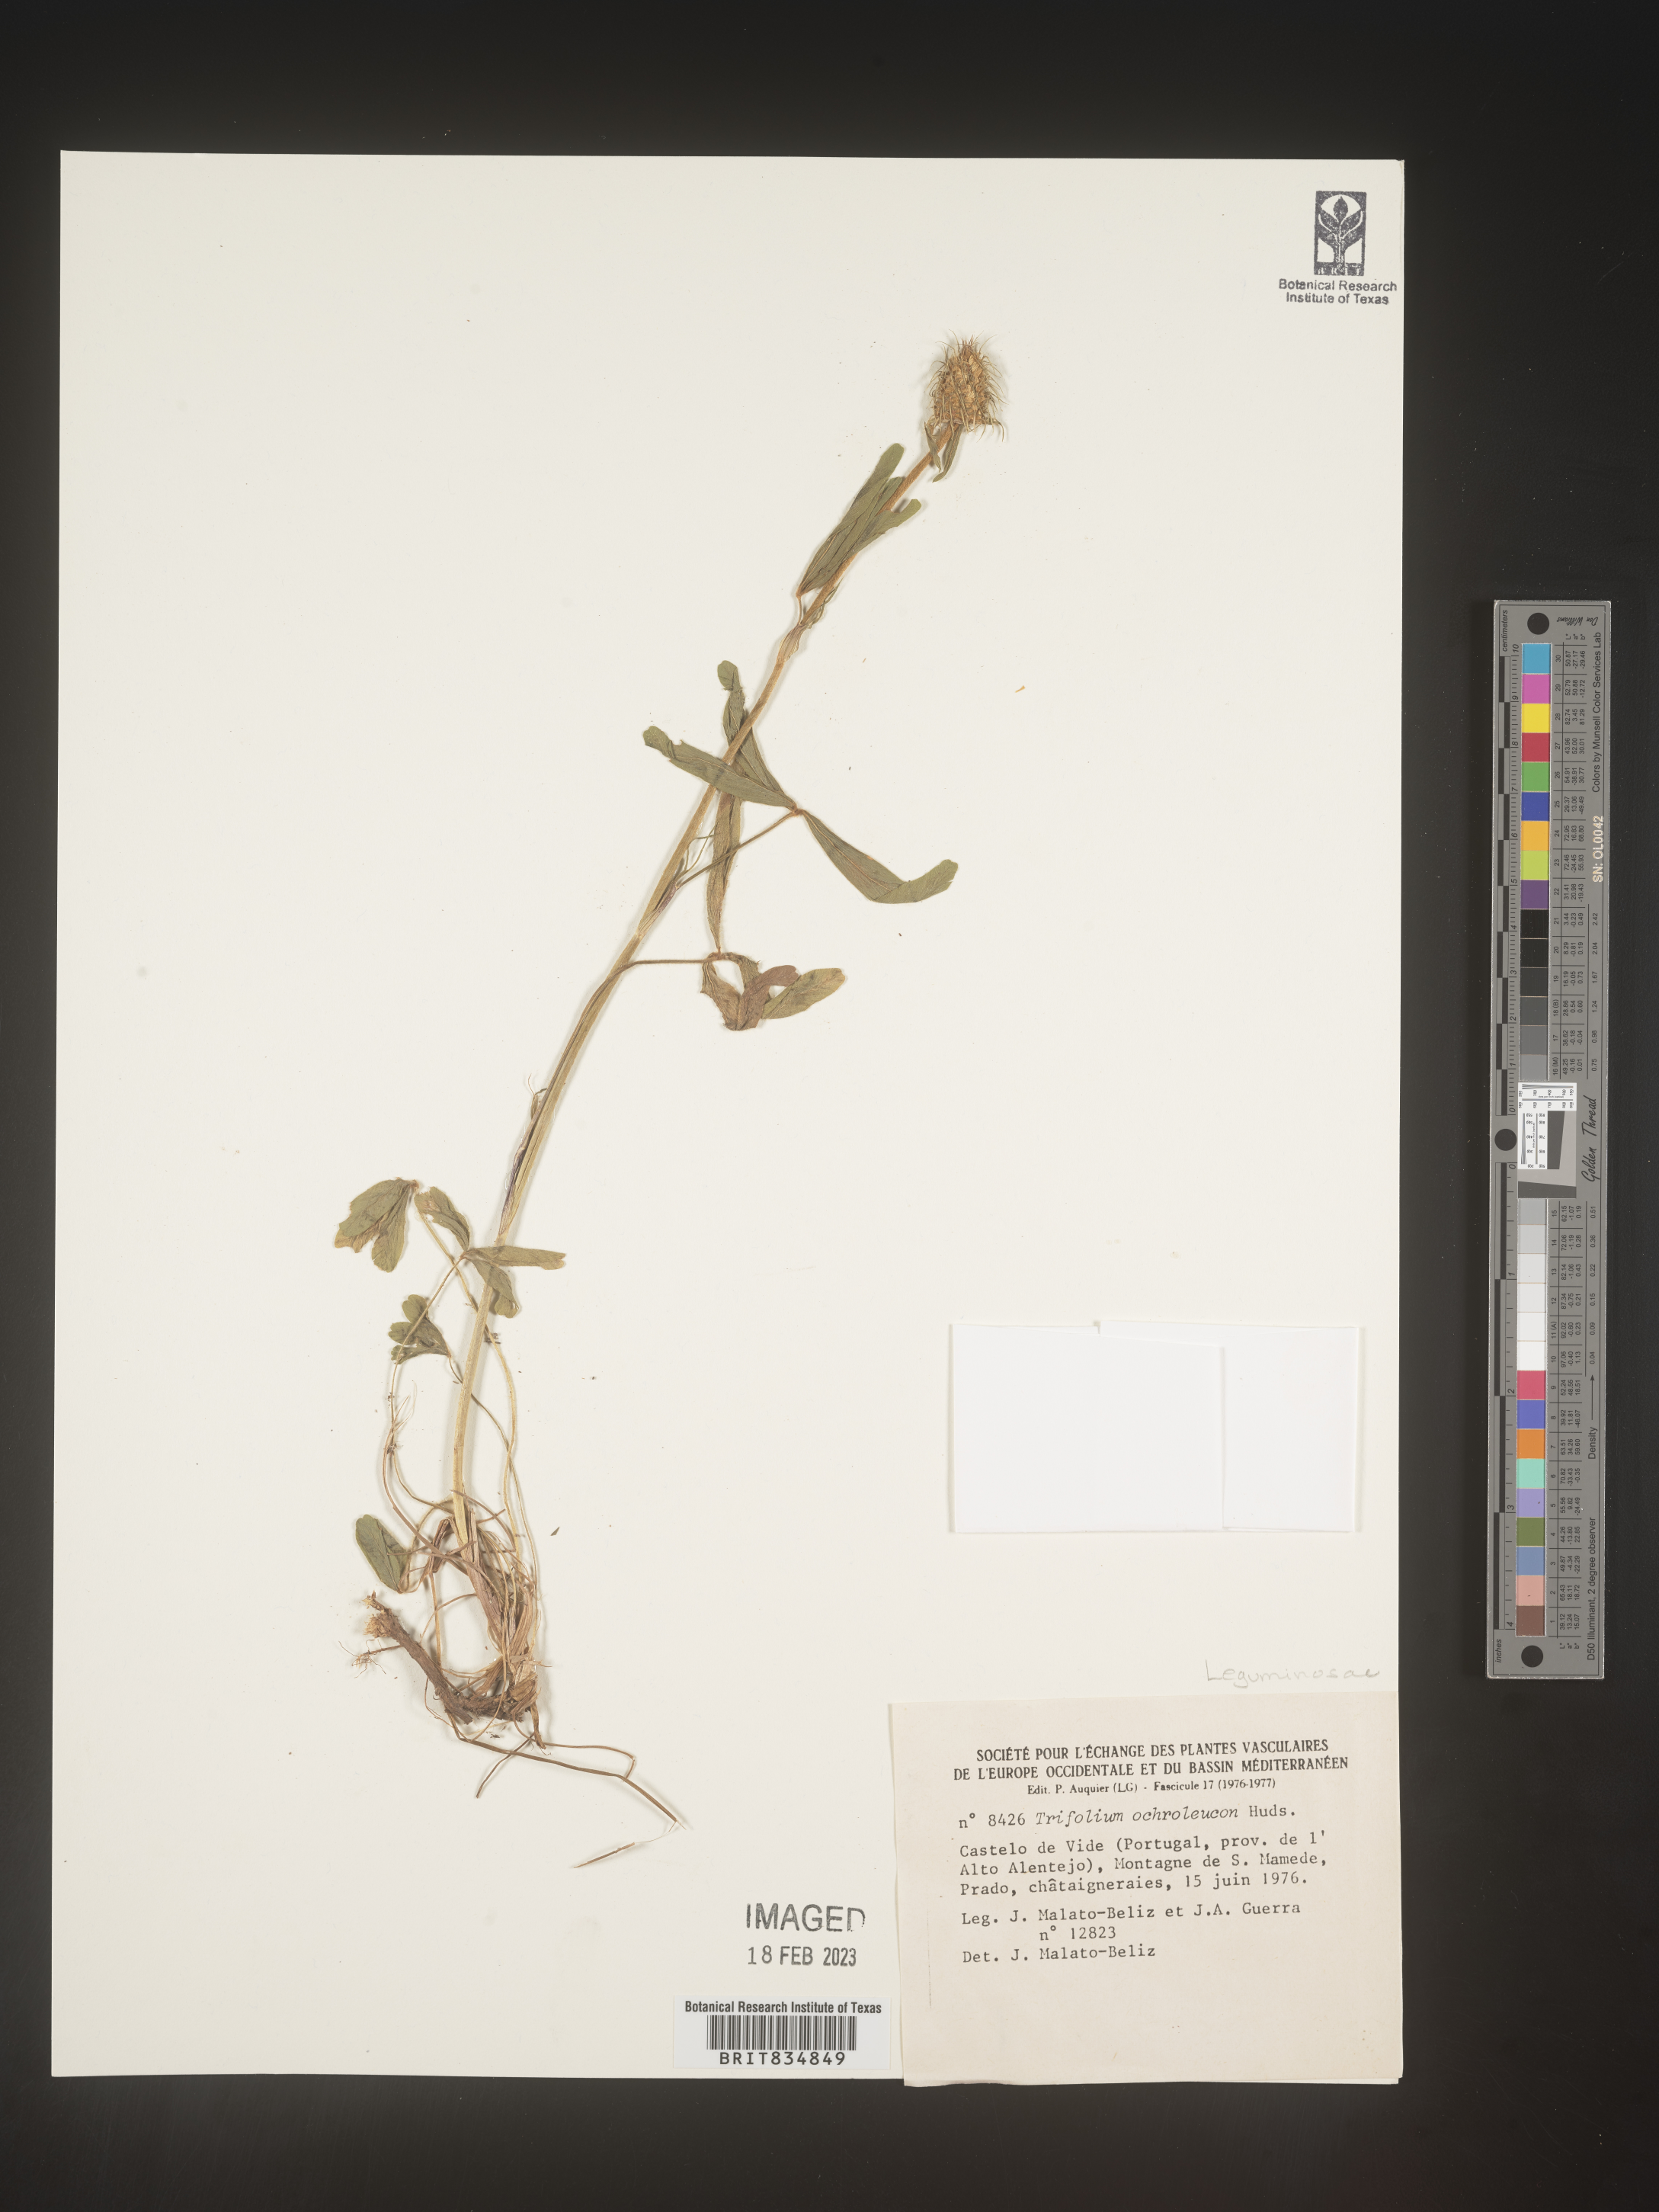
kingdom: Plantae
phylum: Tracheophyta
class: Magnoliopsida
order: Fabales
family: Fabaceae
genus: Trifolium
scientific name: Trifolium
